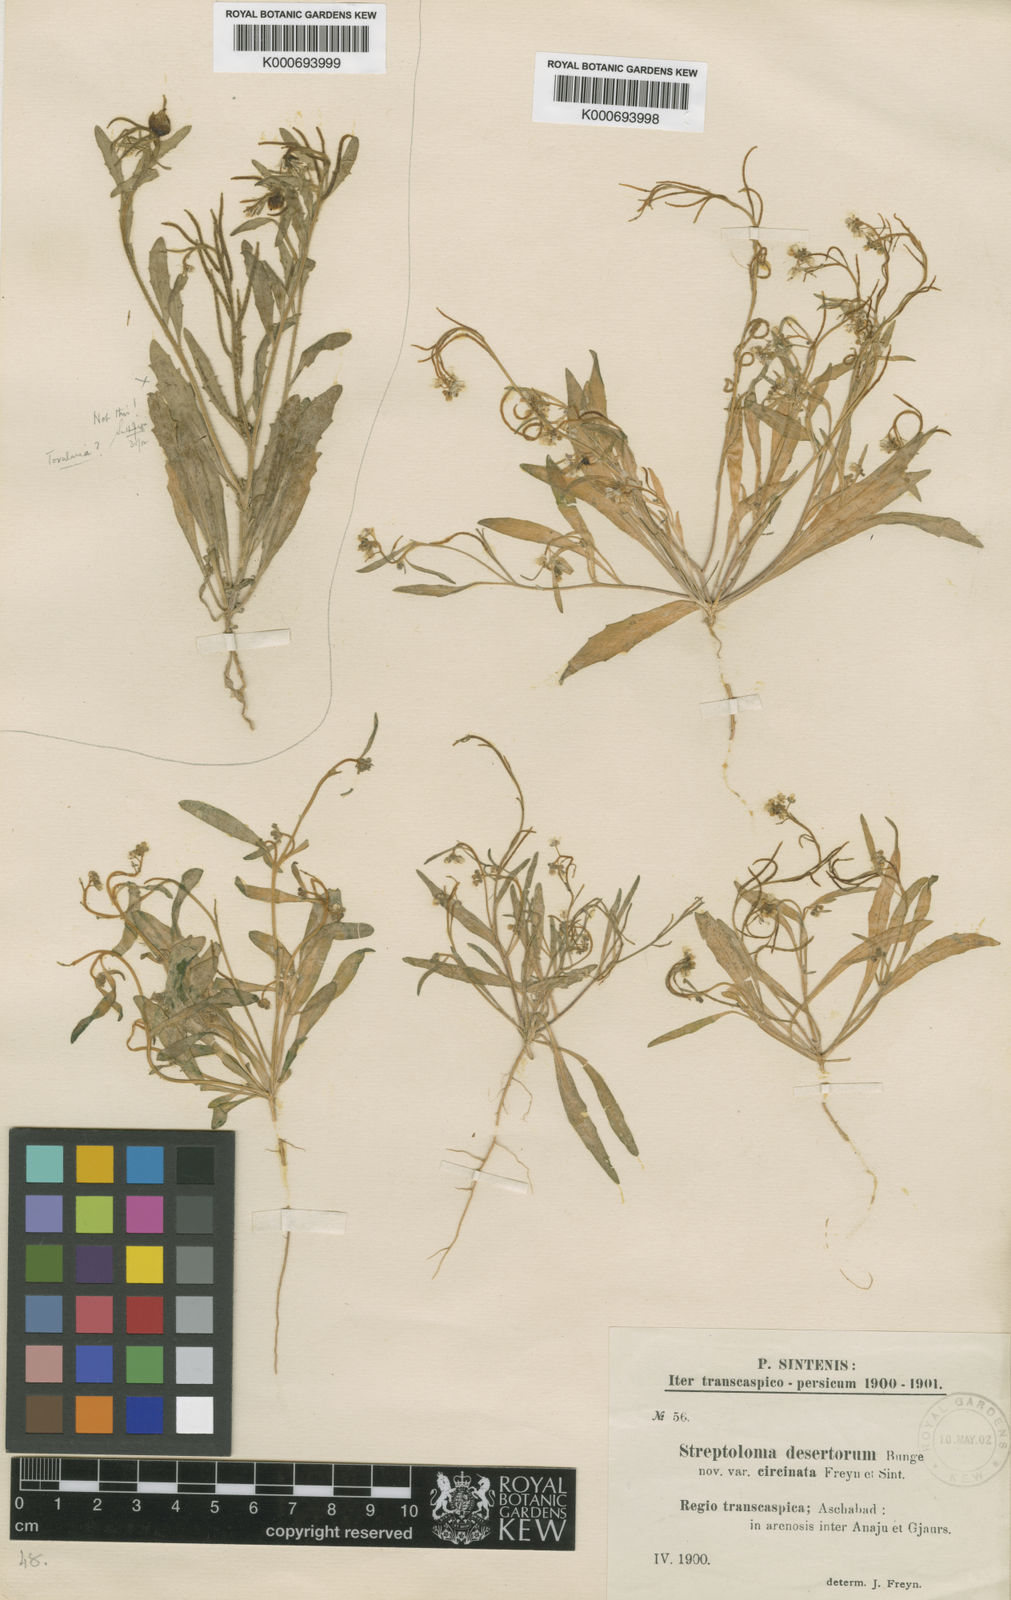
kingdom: Plantae
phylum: Tracheophyta
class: Magnoliopsida
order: Brassicales
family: Brassicaceae
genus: Streptoloma
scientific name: Streptoloma desertorum
